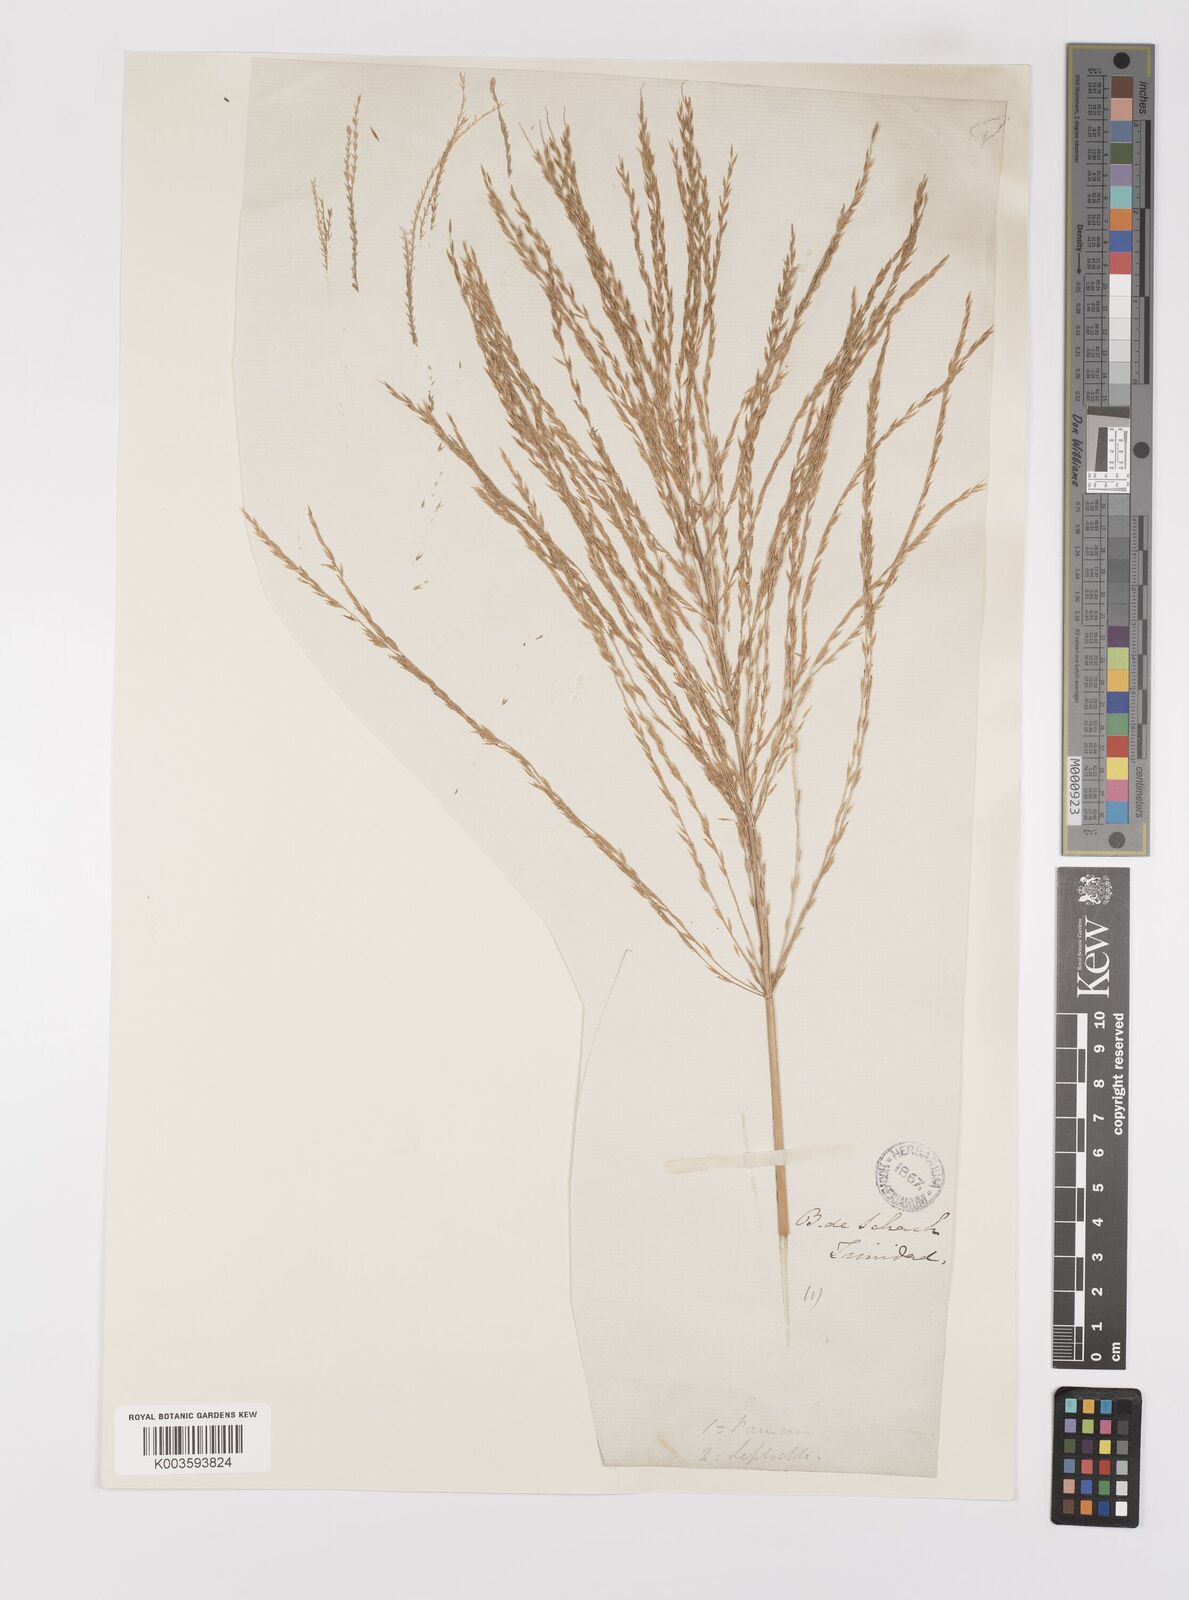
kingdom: Plantae
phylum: Tracheophyta
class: Liliopsida
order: Poales
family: Poaceae
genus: Digitaria
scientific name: Digitaria laxa
